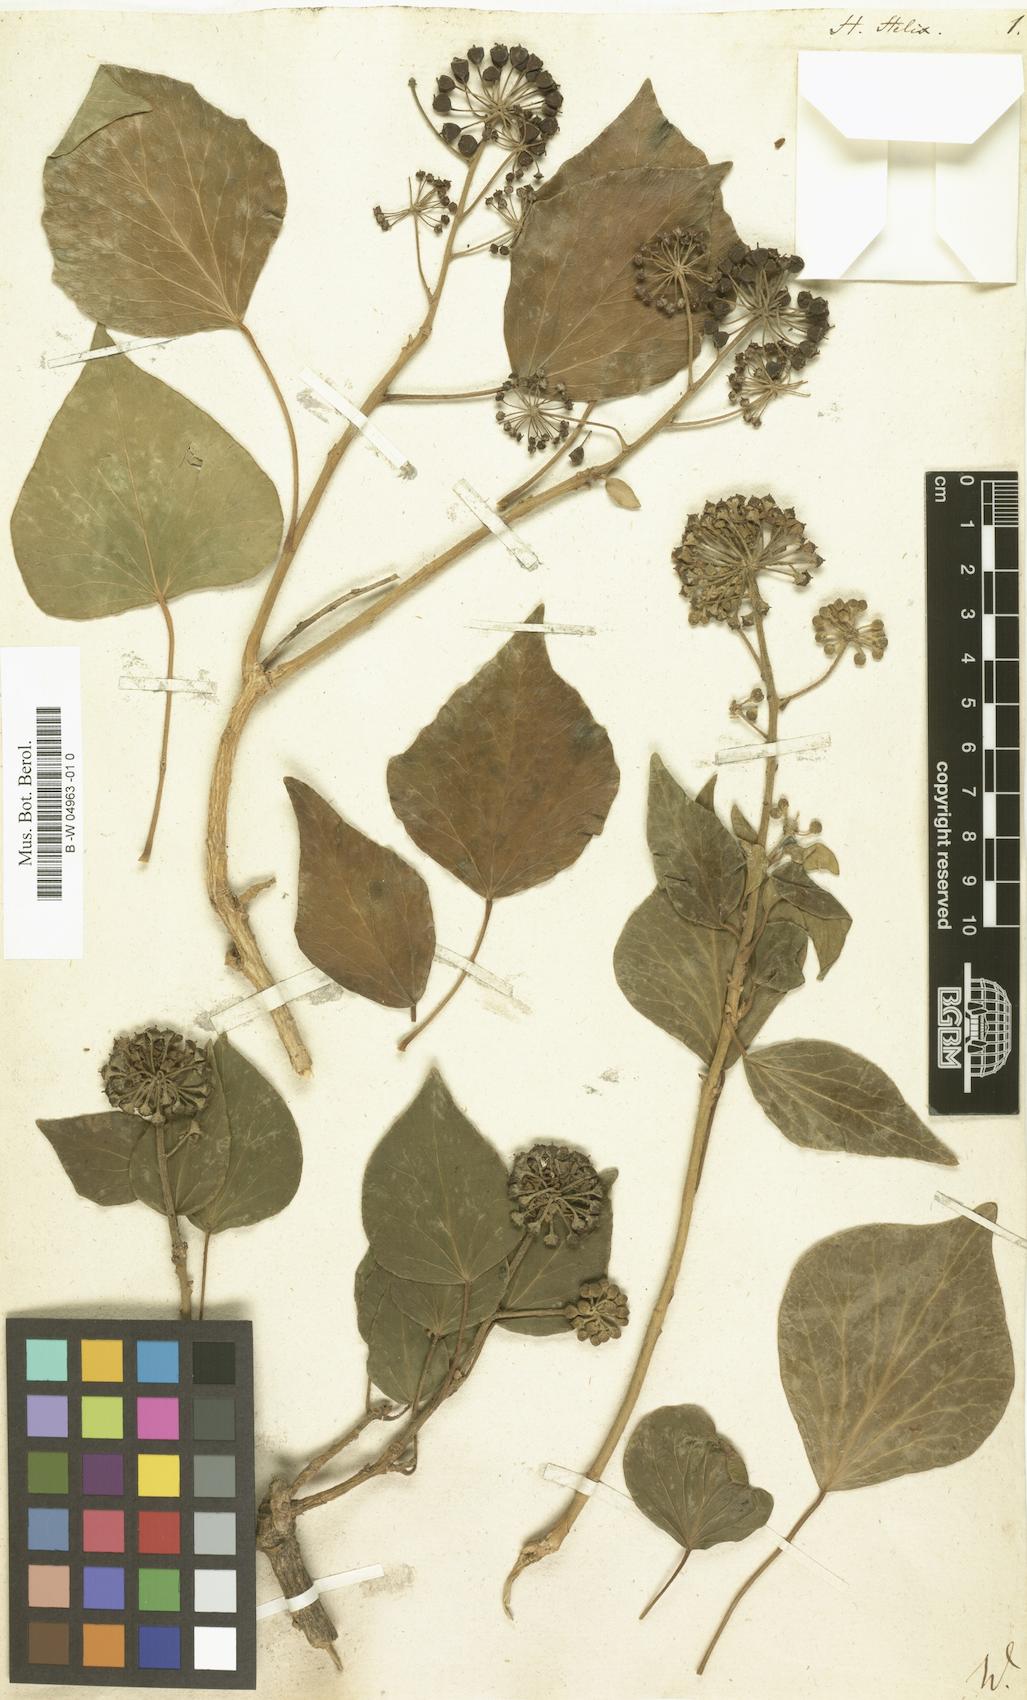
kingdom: Plantae
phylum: Tracheophyta
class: Magnoliopsida
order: Apiales
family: Araliaceae
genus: Hedera
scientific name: Hedera helix
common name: Ivy
